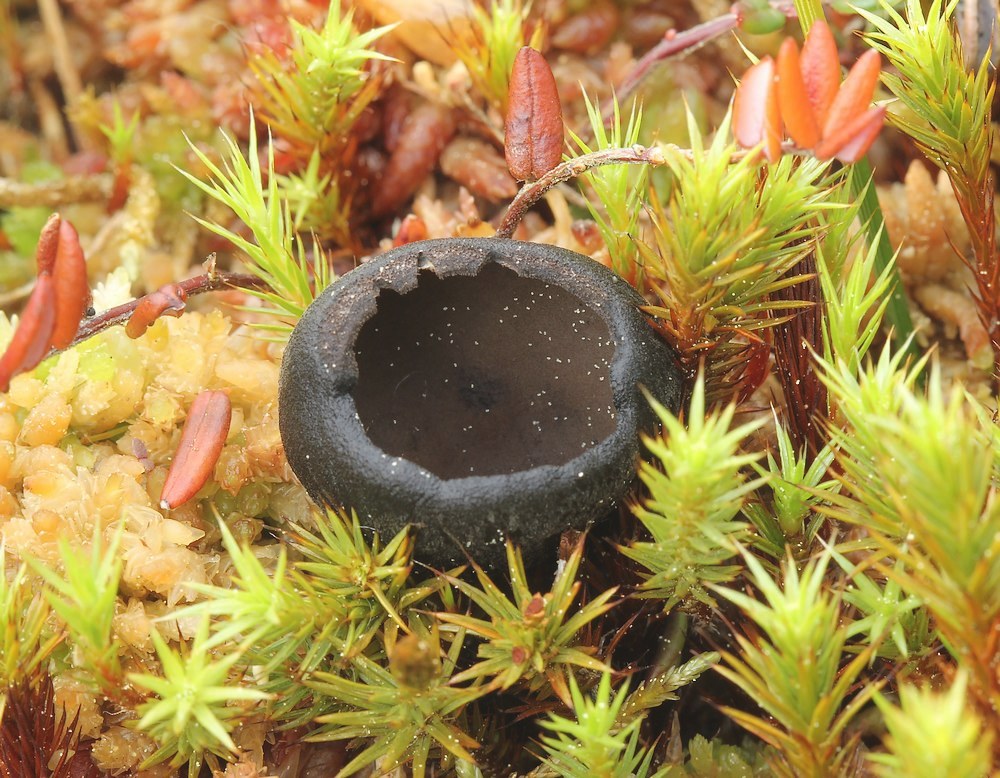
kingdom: Fungi
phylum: Ascomycota
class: Pezizomycetes
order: Pezizales
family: Sarcosomataceae
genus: Pseudoplectania
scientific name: Pseudoplectania episphagnum
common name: tørvemos-sortbæger
